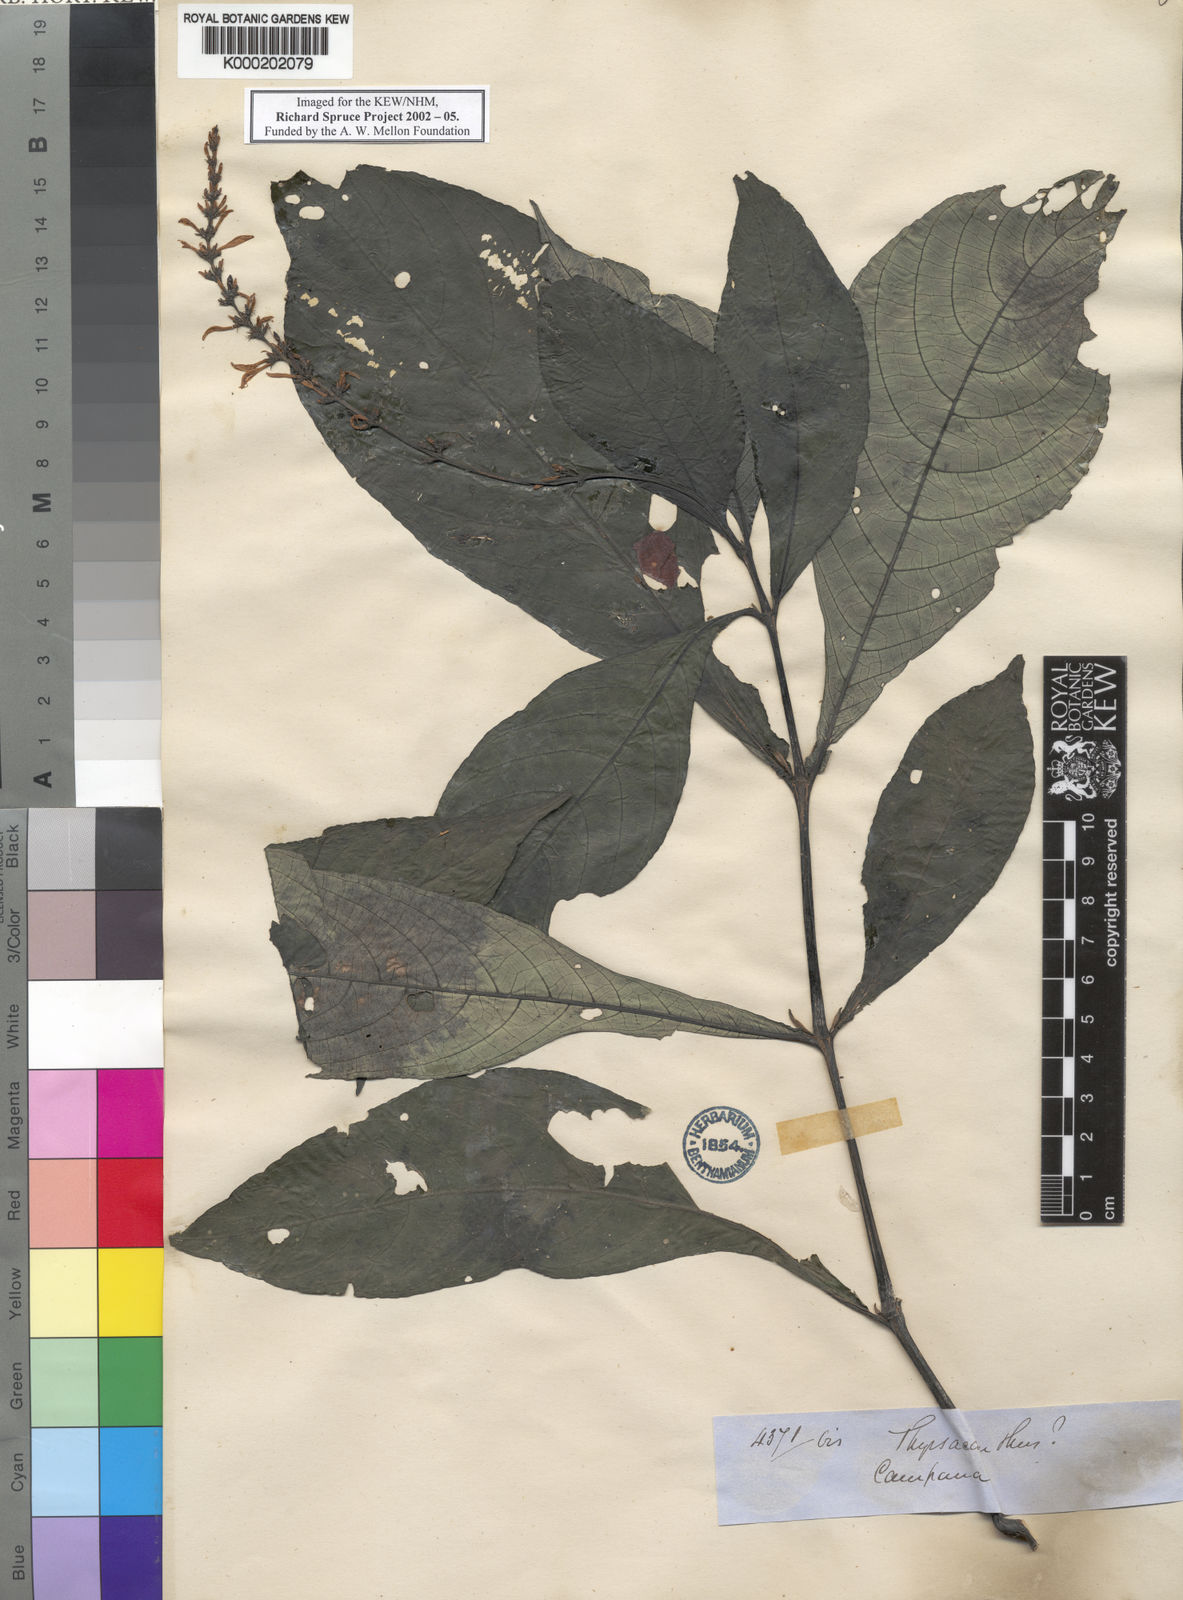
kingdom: Plantae
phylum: Tracheophyta
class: Magnoliopsida
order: Lamiales
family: Acanthaceae
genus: Pseuderanthemum
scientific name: Pseuderanthemum hookerianum
